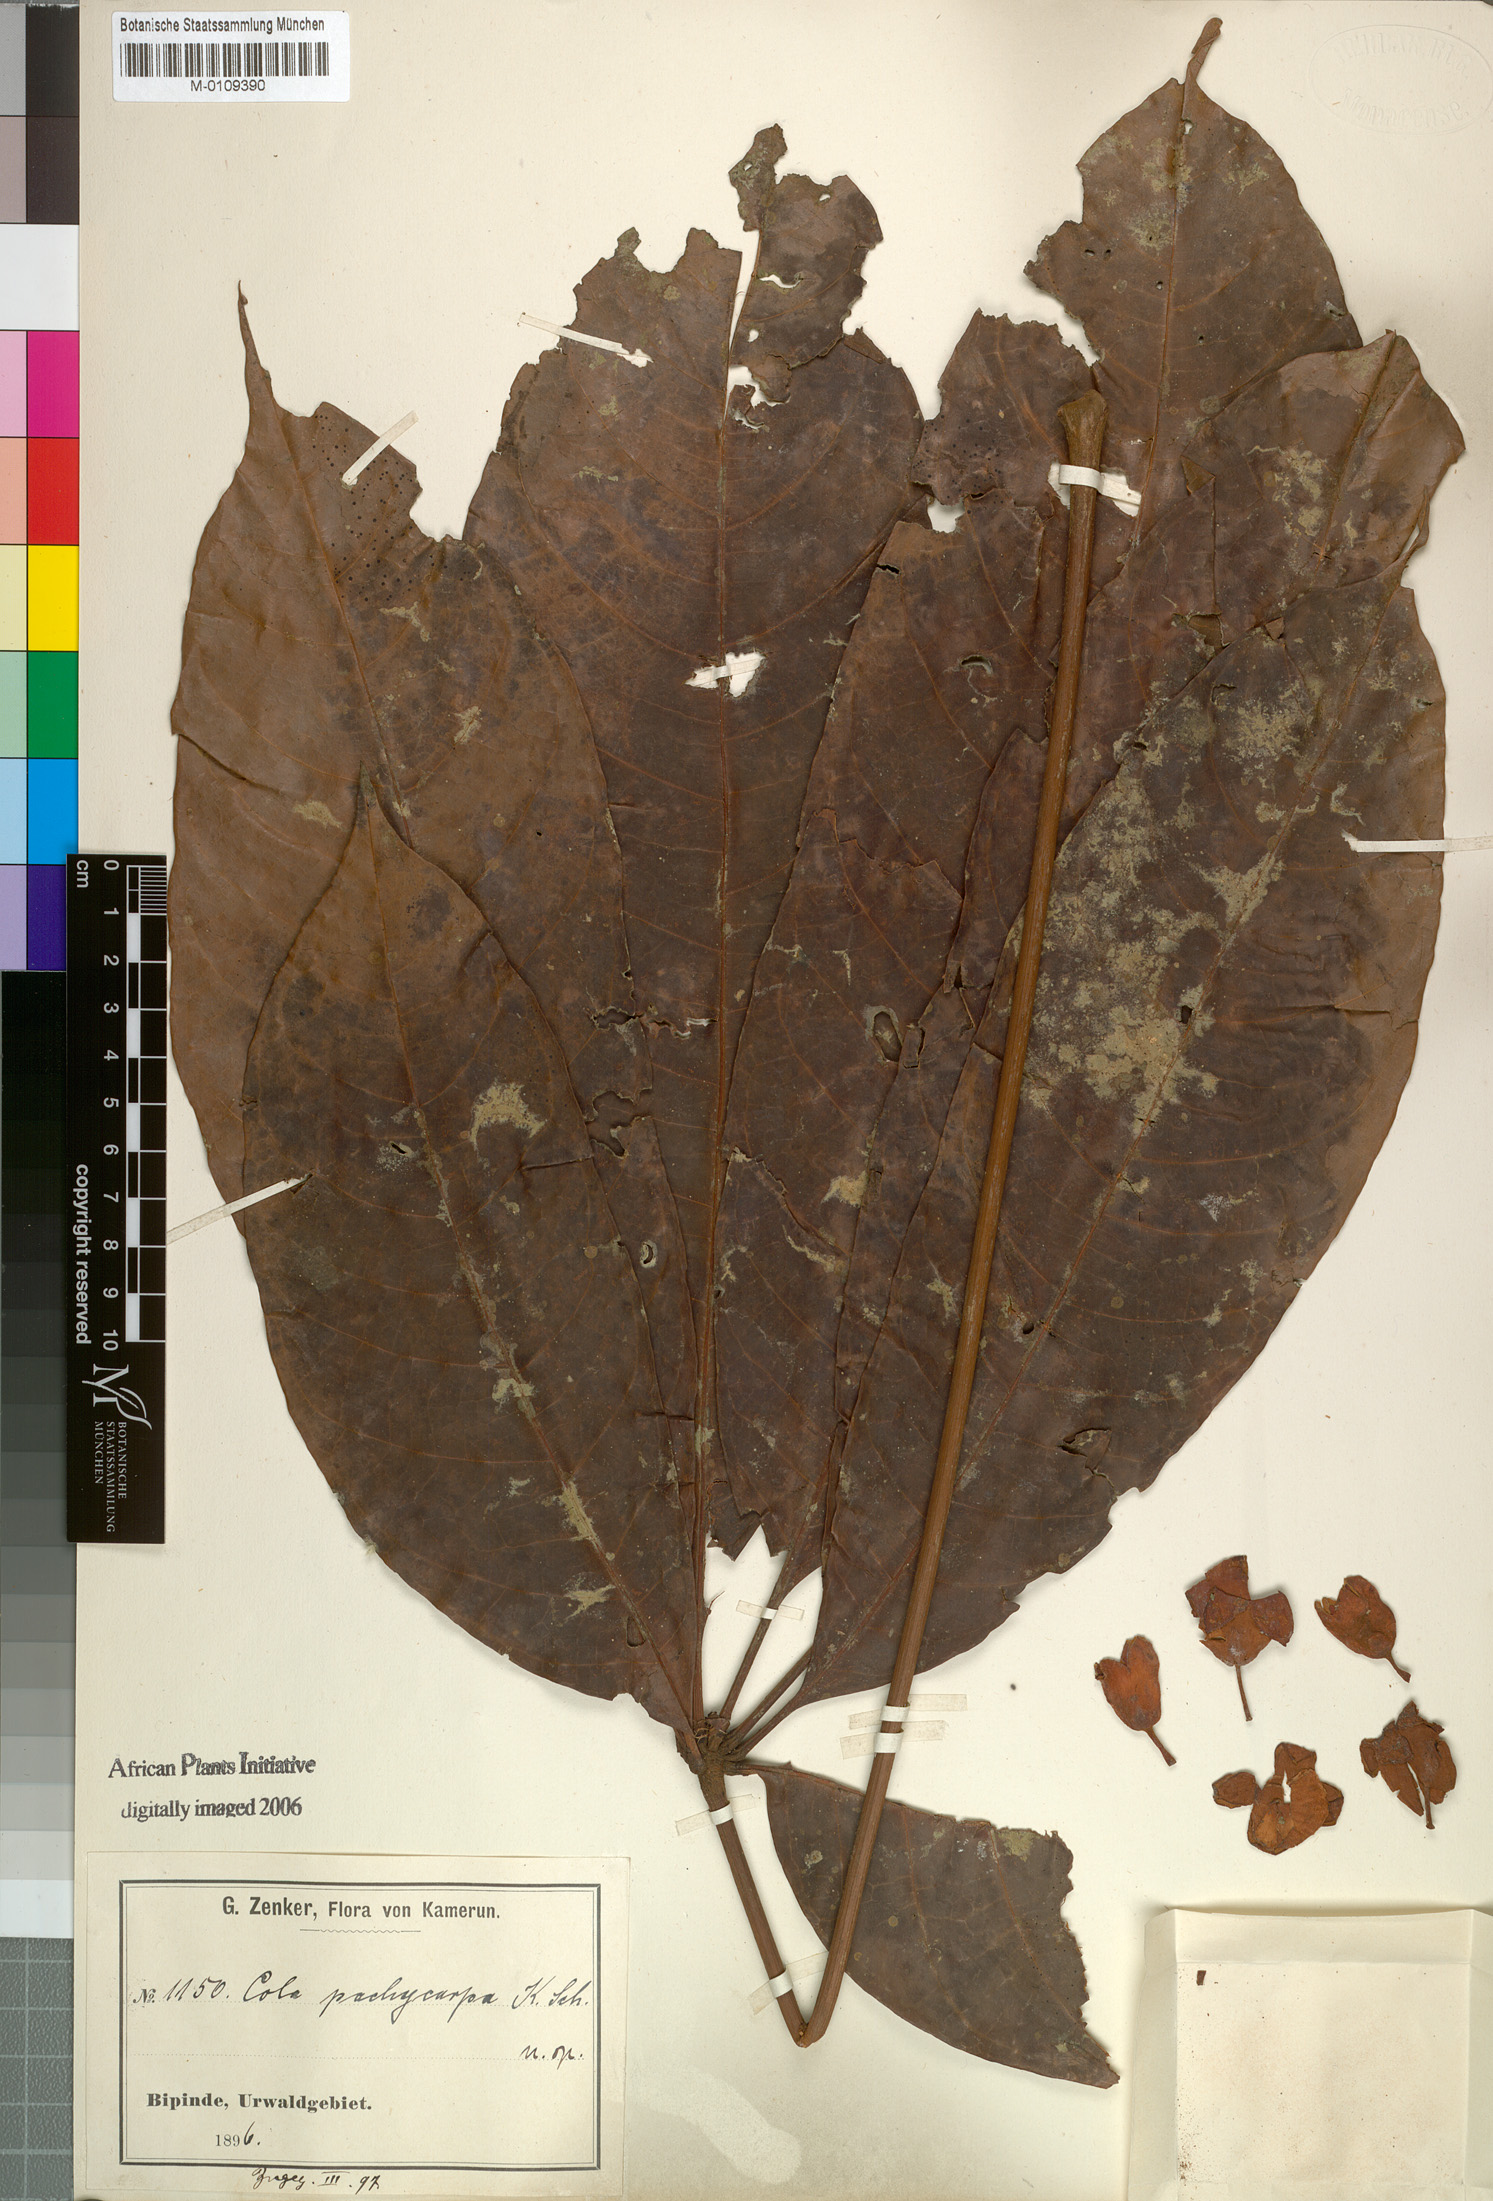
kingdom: Plantae
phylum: Tracheophyta
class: Magnoliopsida
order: Malvales
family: Malvaceae
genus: Cola
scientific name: Cola pachycarpa
